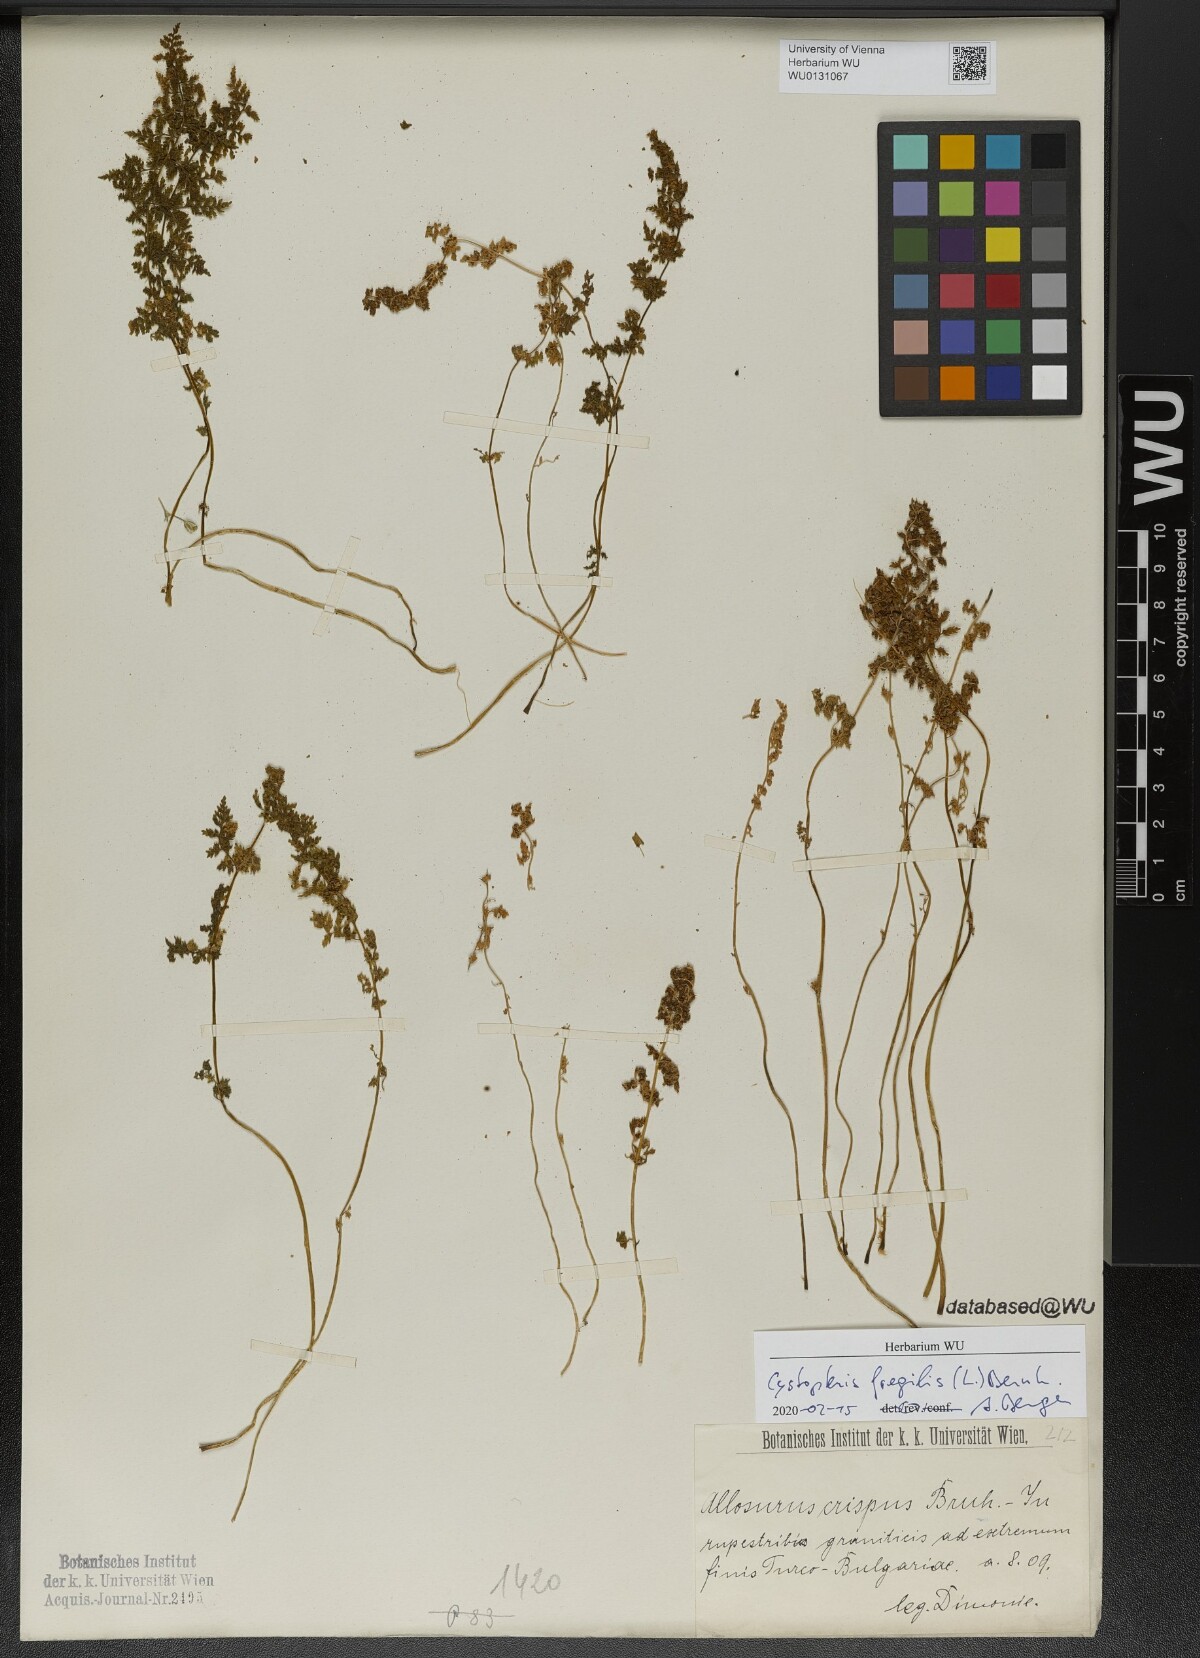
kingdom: Plantae
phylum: Tracheophyta
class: Polypodiopsida
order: Polypodiales
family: Cystopteridaceae
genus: Cystopteris
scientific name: Cystopteris fragilis
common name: Brittle bladder fern
